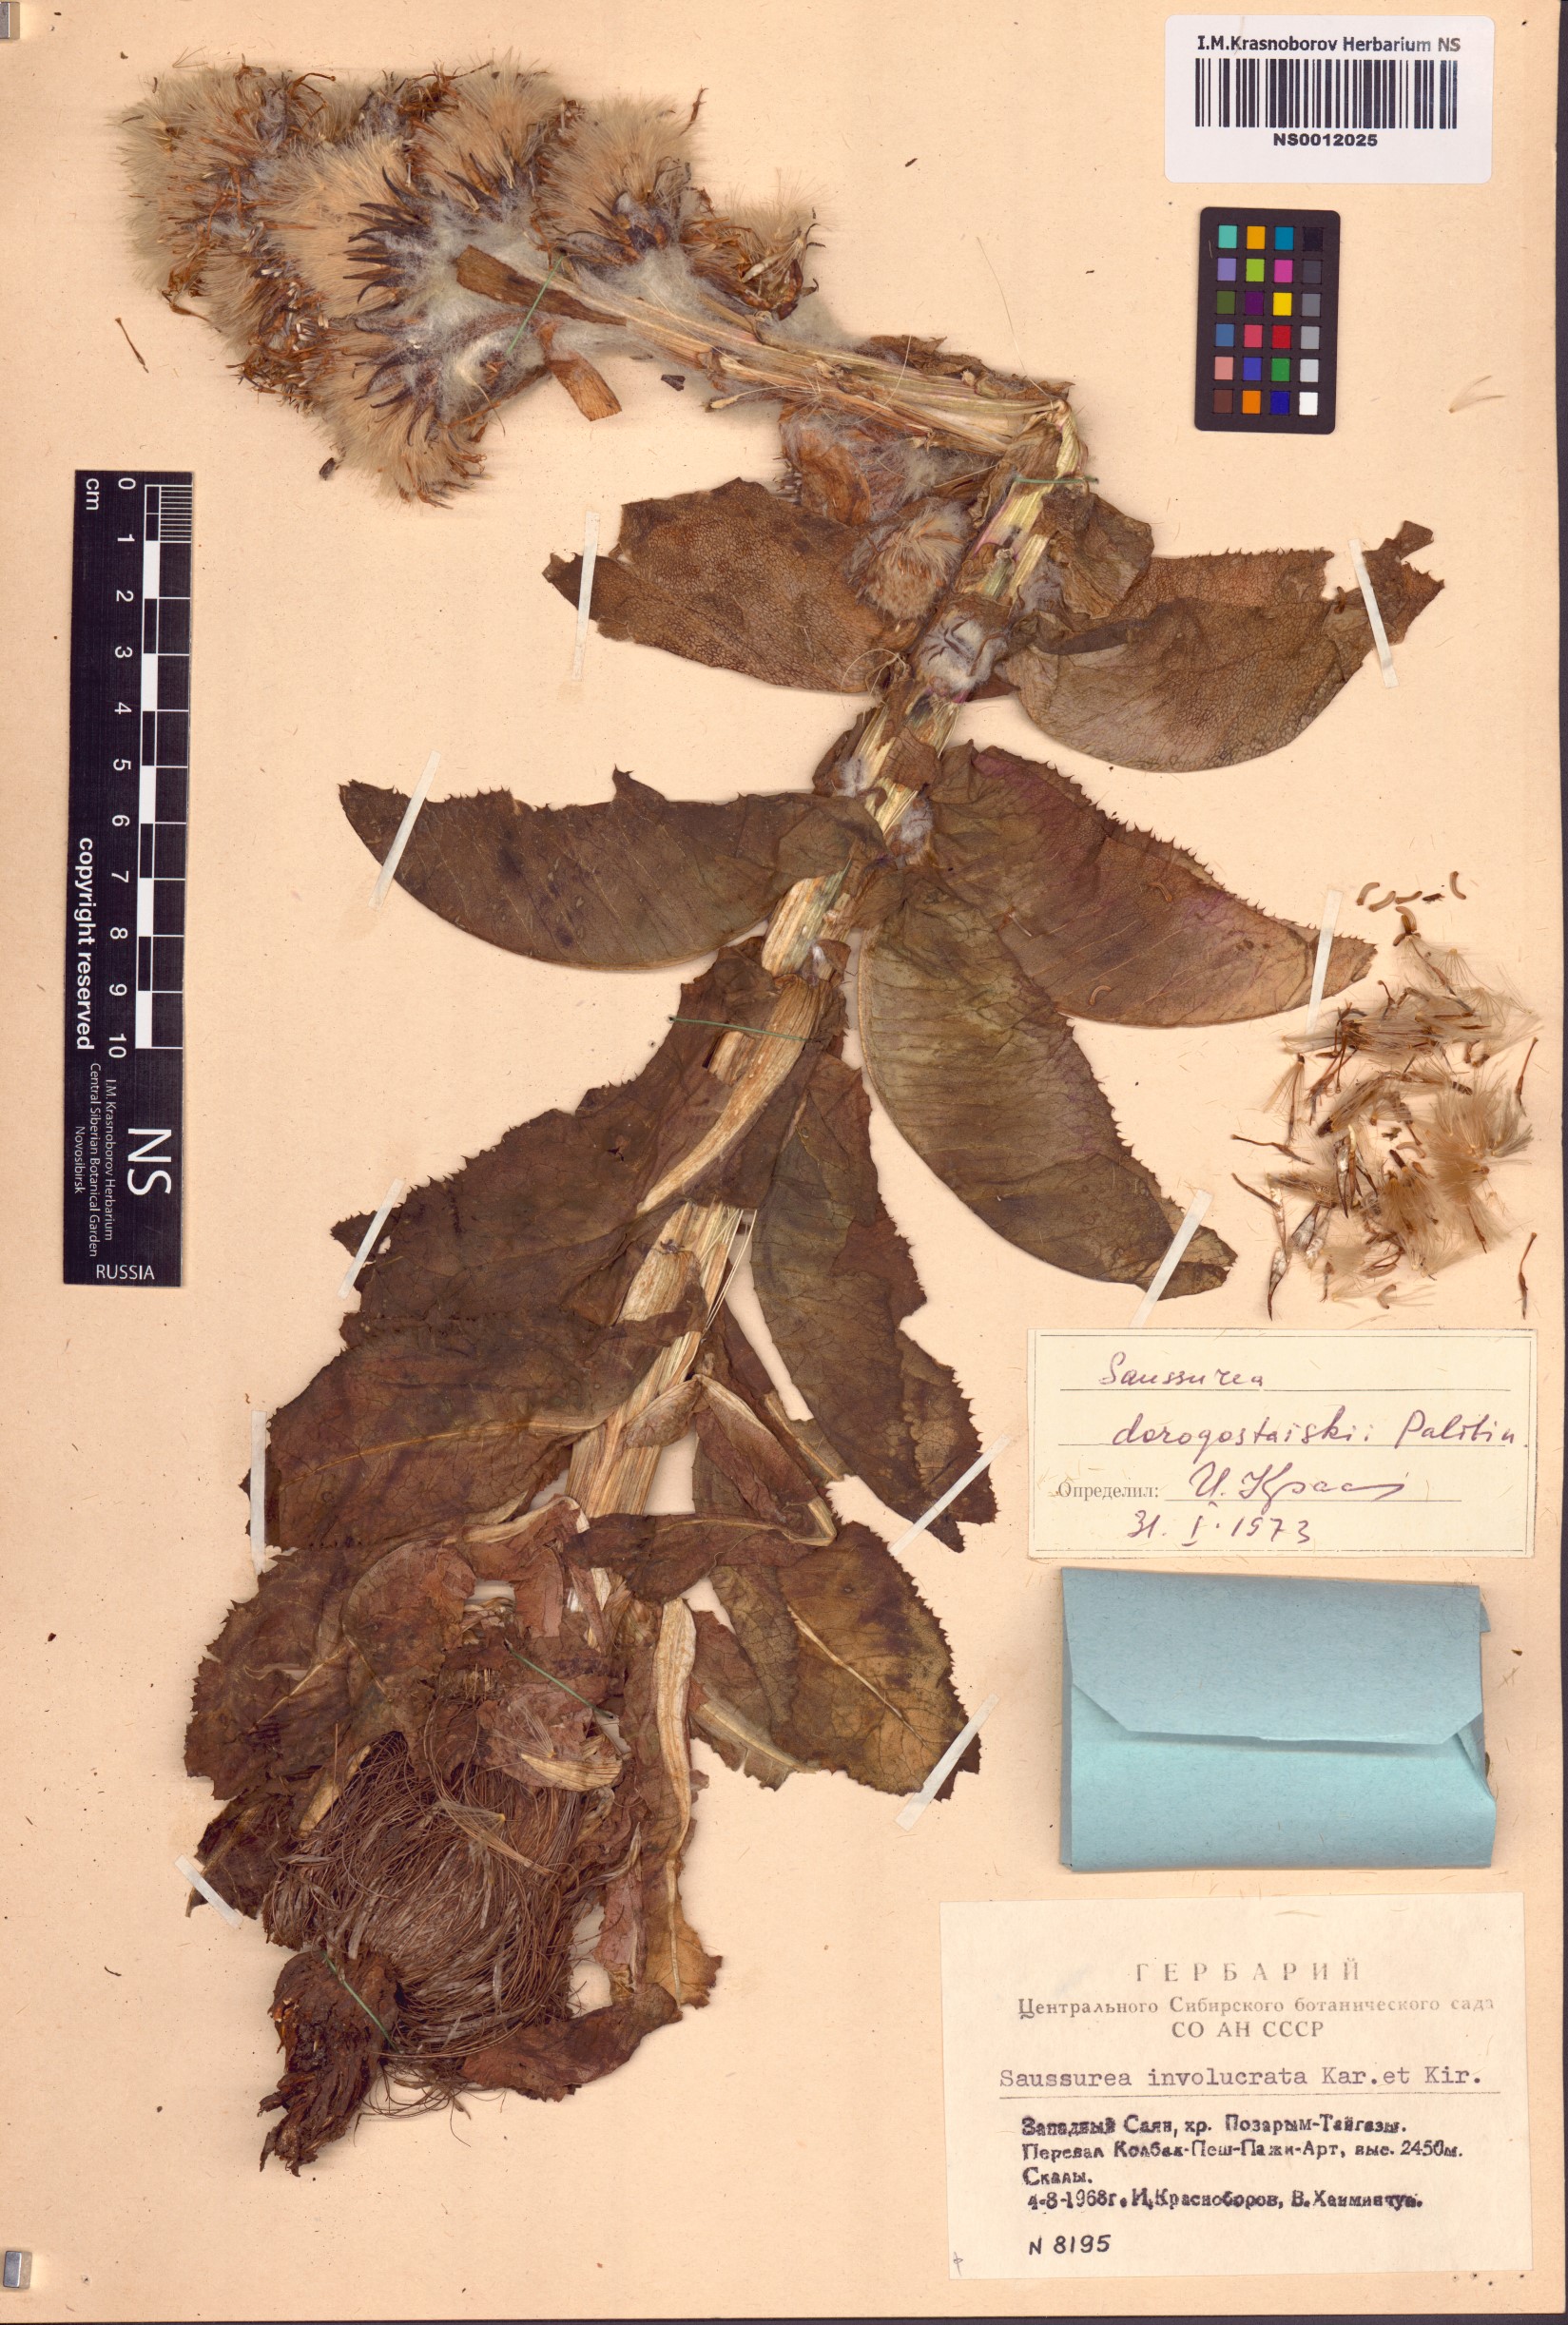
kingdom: Plantae
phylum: Tracheophyta
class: Magnoliopsida
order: Asterales
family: Asteraceae
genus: Saussurea
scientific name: Saussurea involucrata
